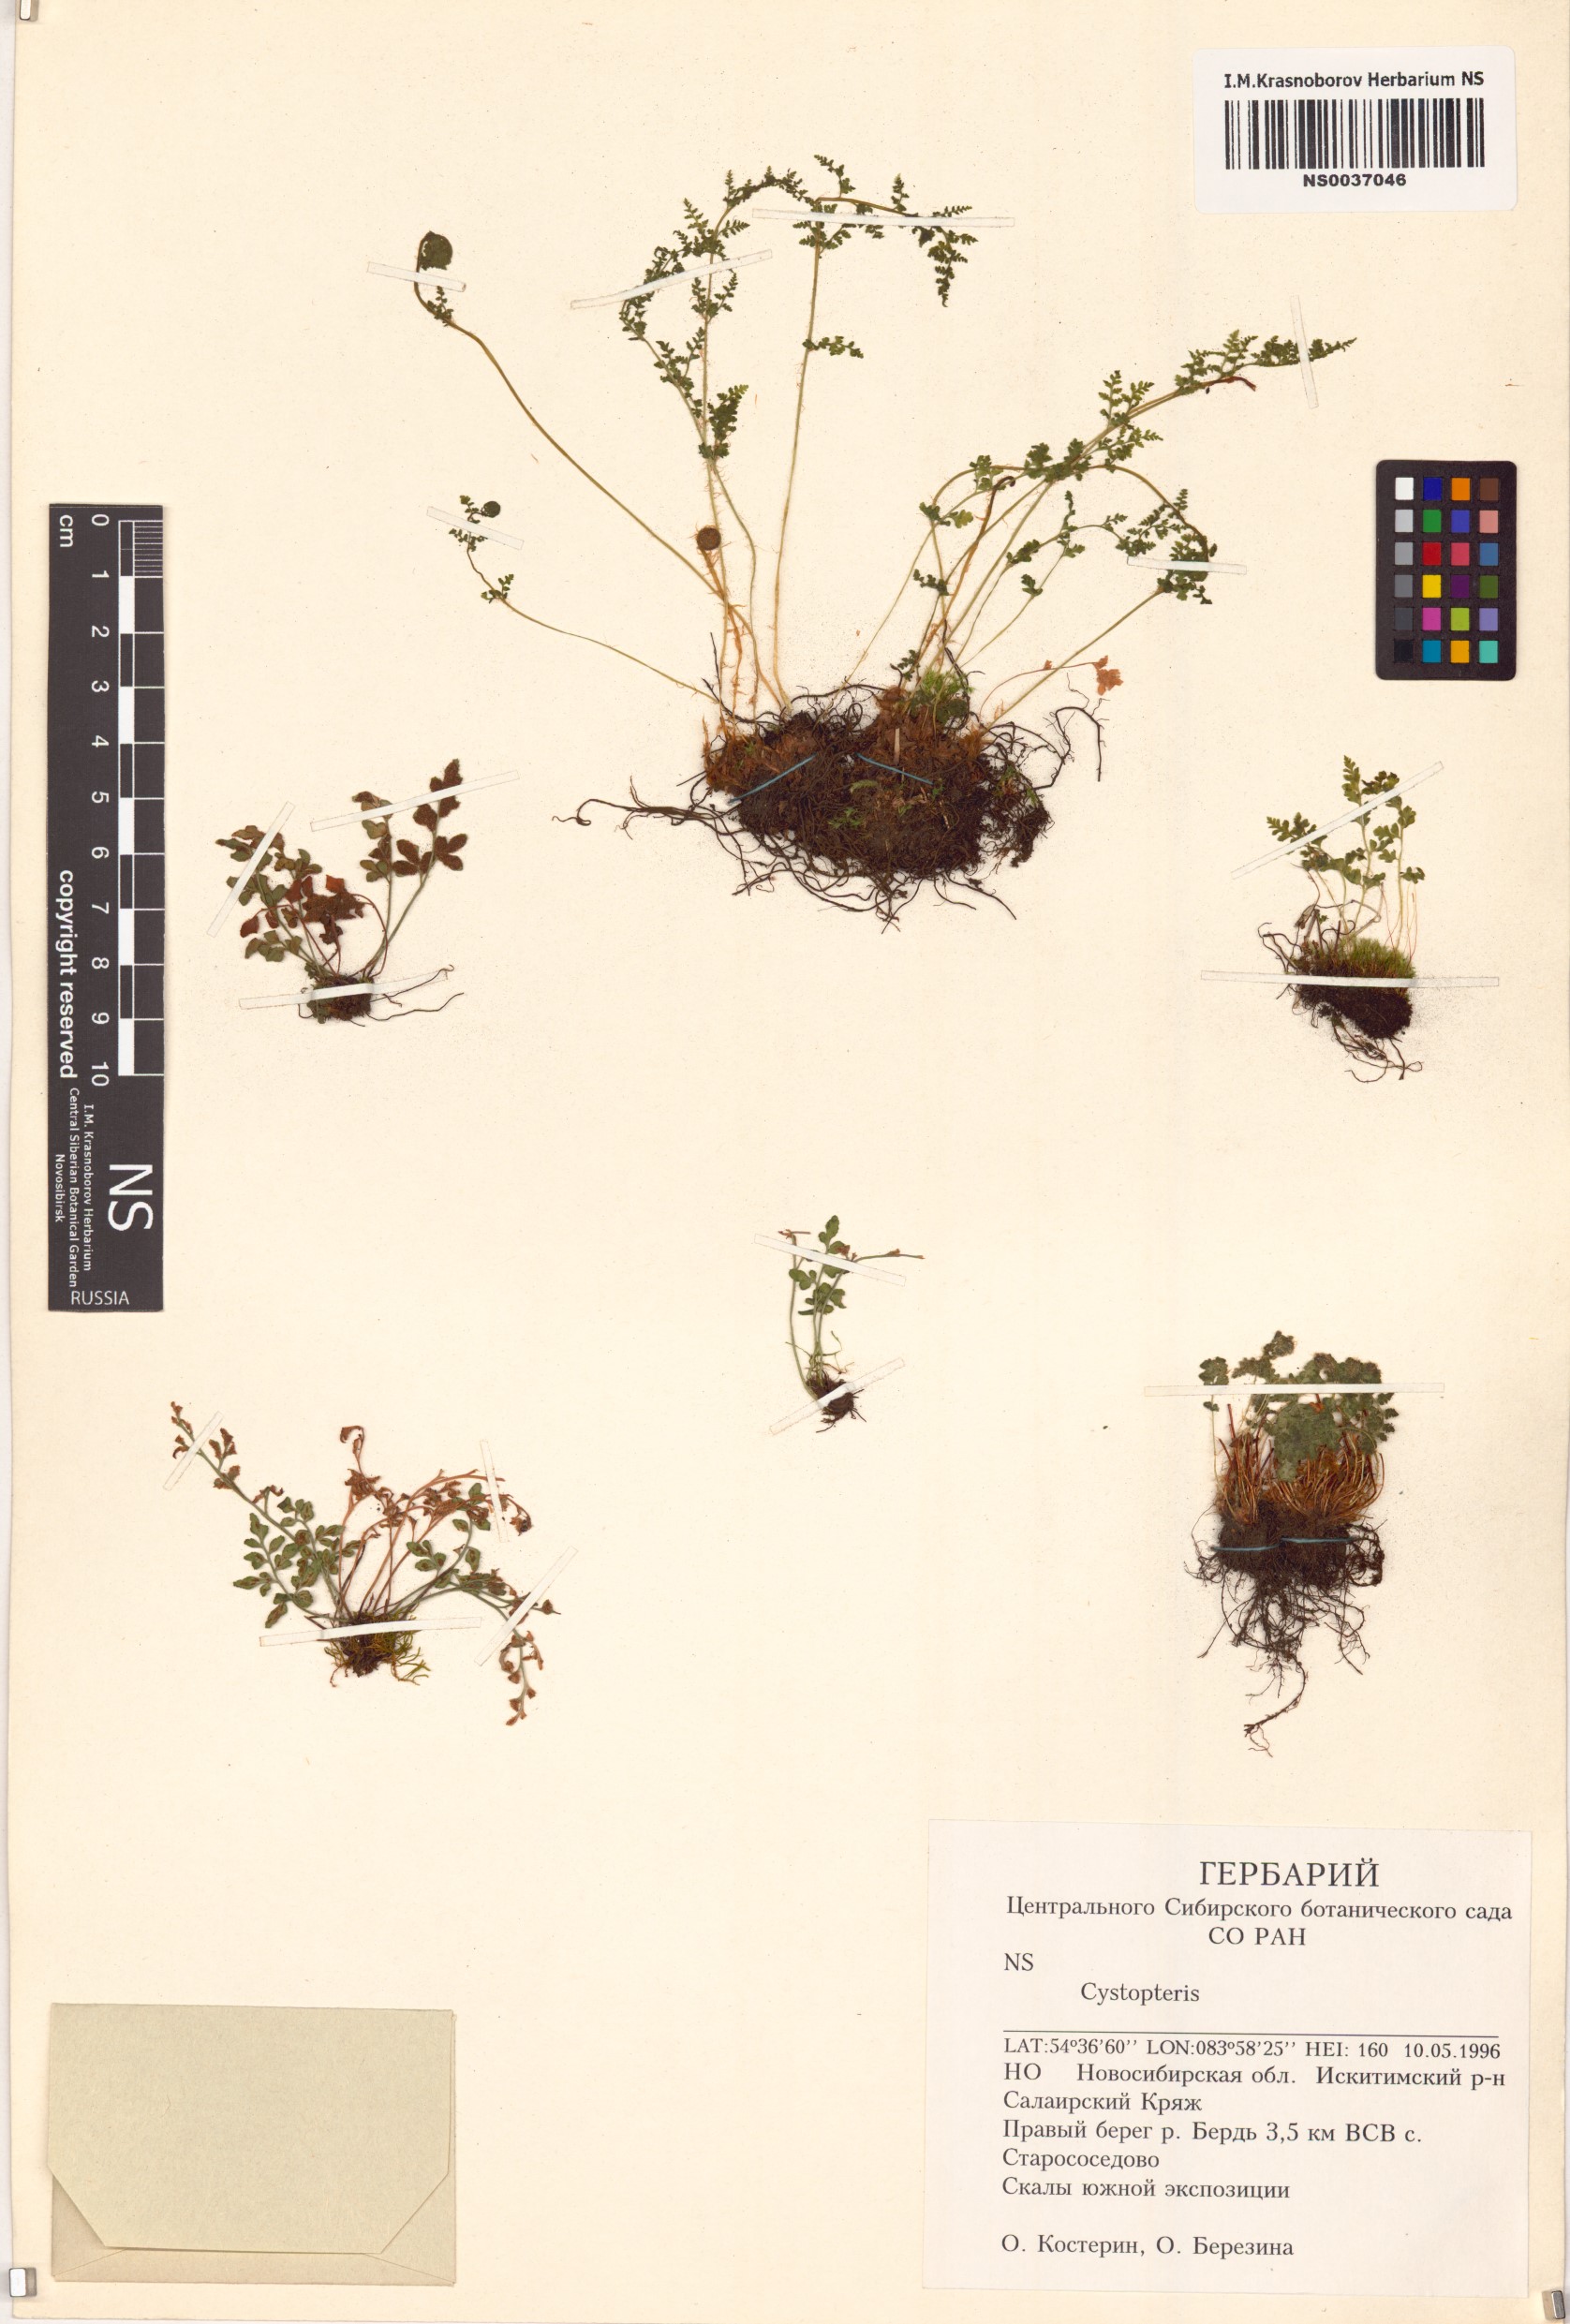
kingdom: Plantae
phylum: Tracheophyta
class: Polypodiopsida
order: Polypodiales
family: Cystopteridaceae
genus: Cystopteris
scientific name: Cystopteris
